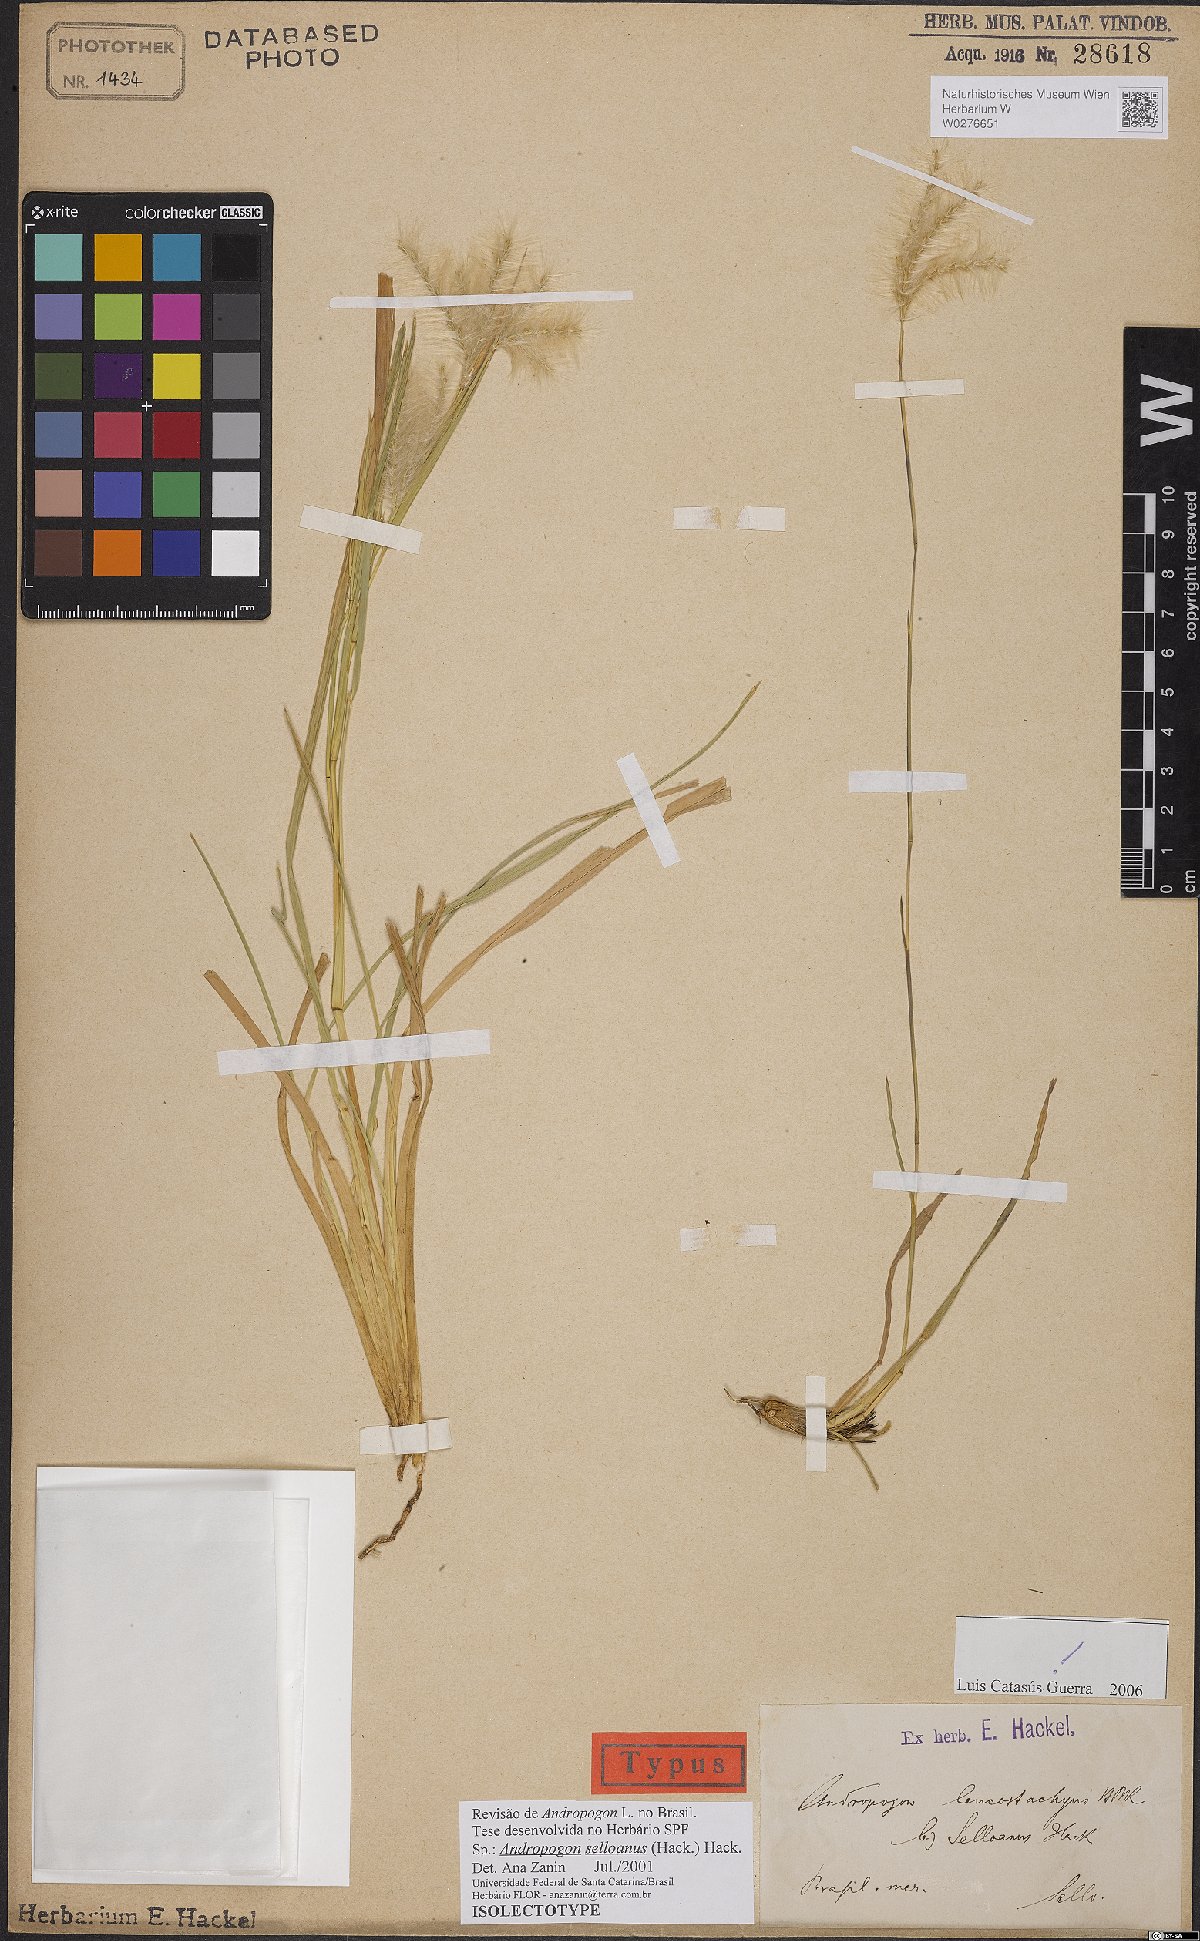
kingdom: Plantae
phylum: Tracheophyta
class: Liliopsida
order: Poales
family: Poaceae
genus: Andropogon
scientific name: Andropogon selloanus
